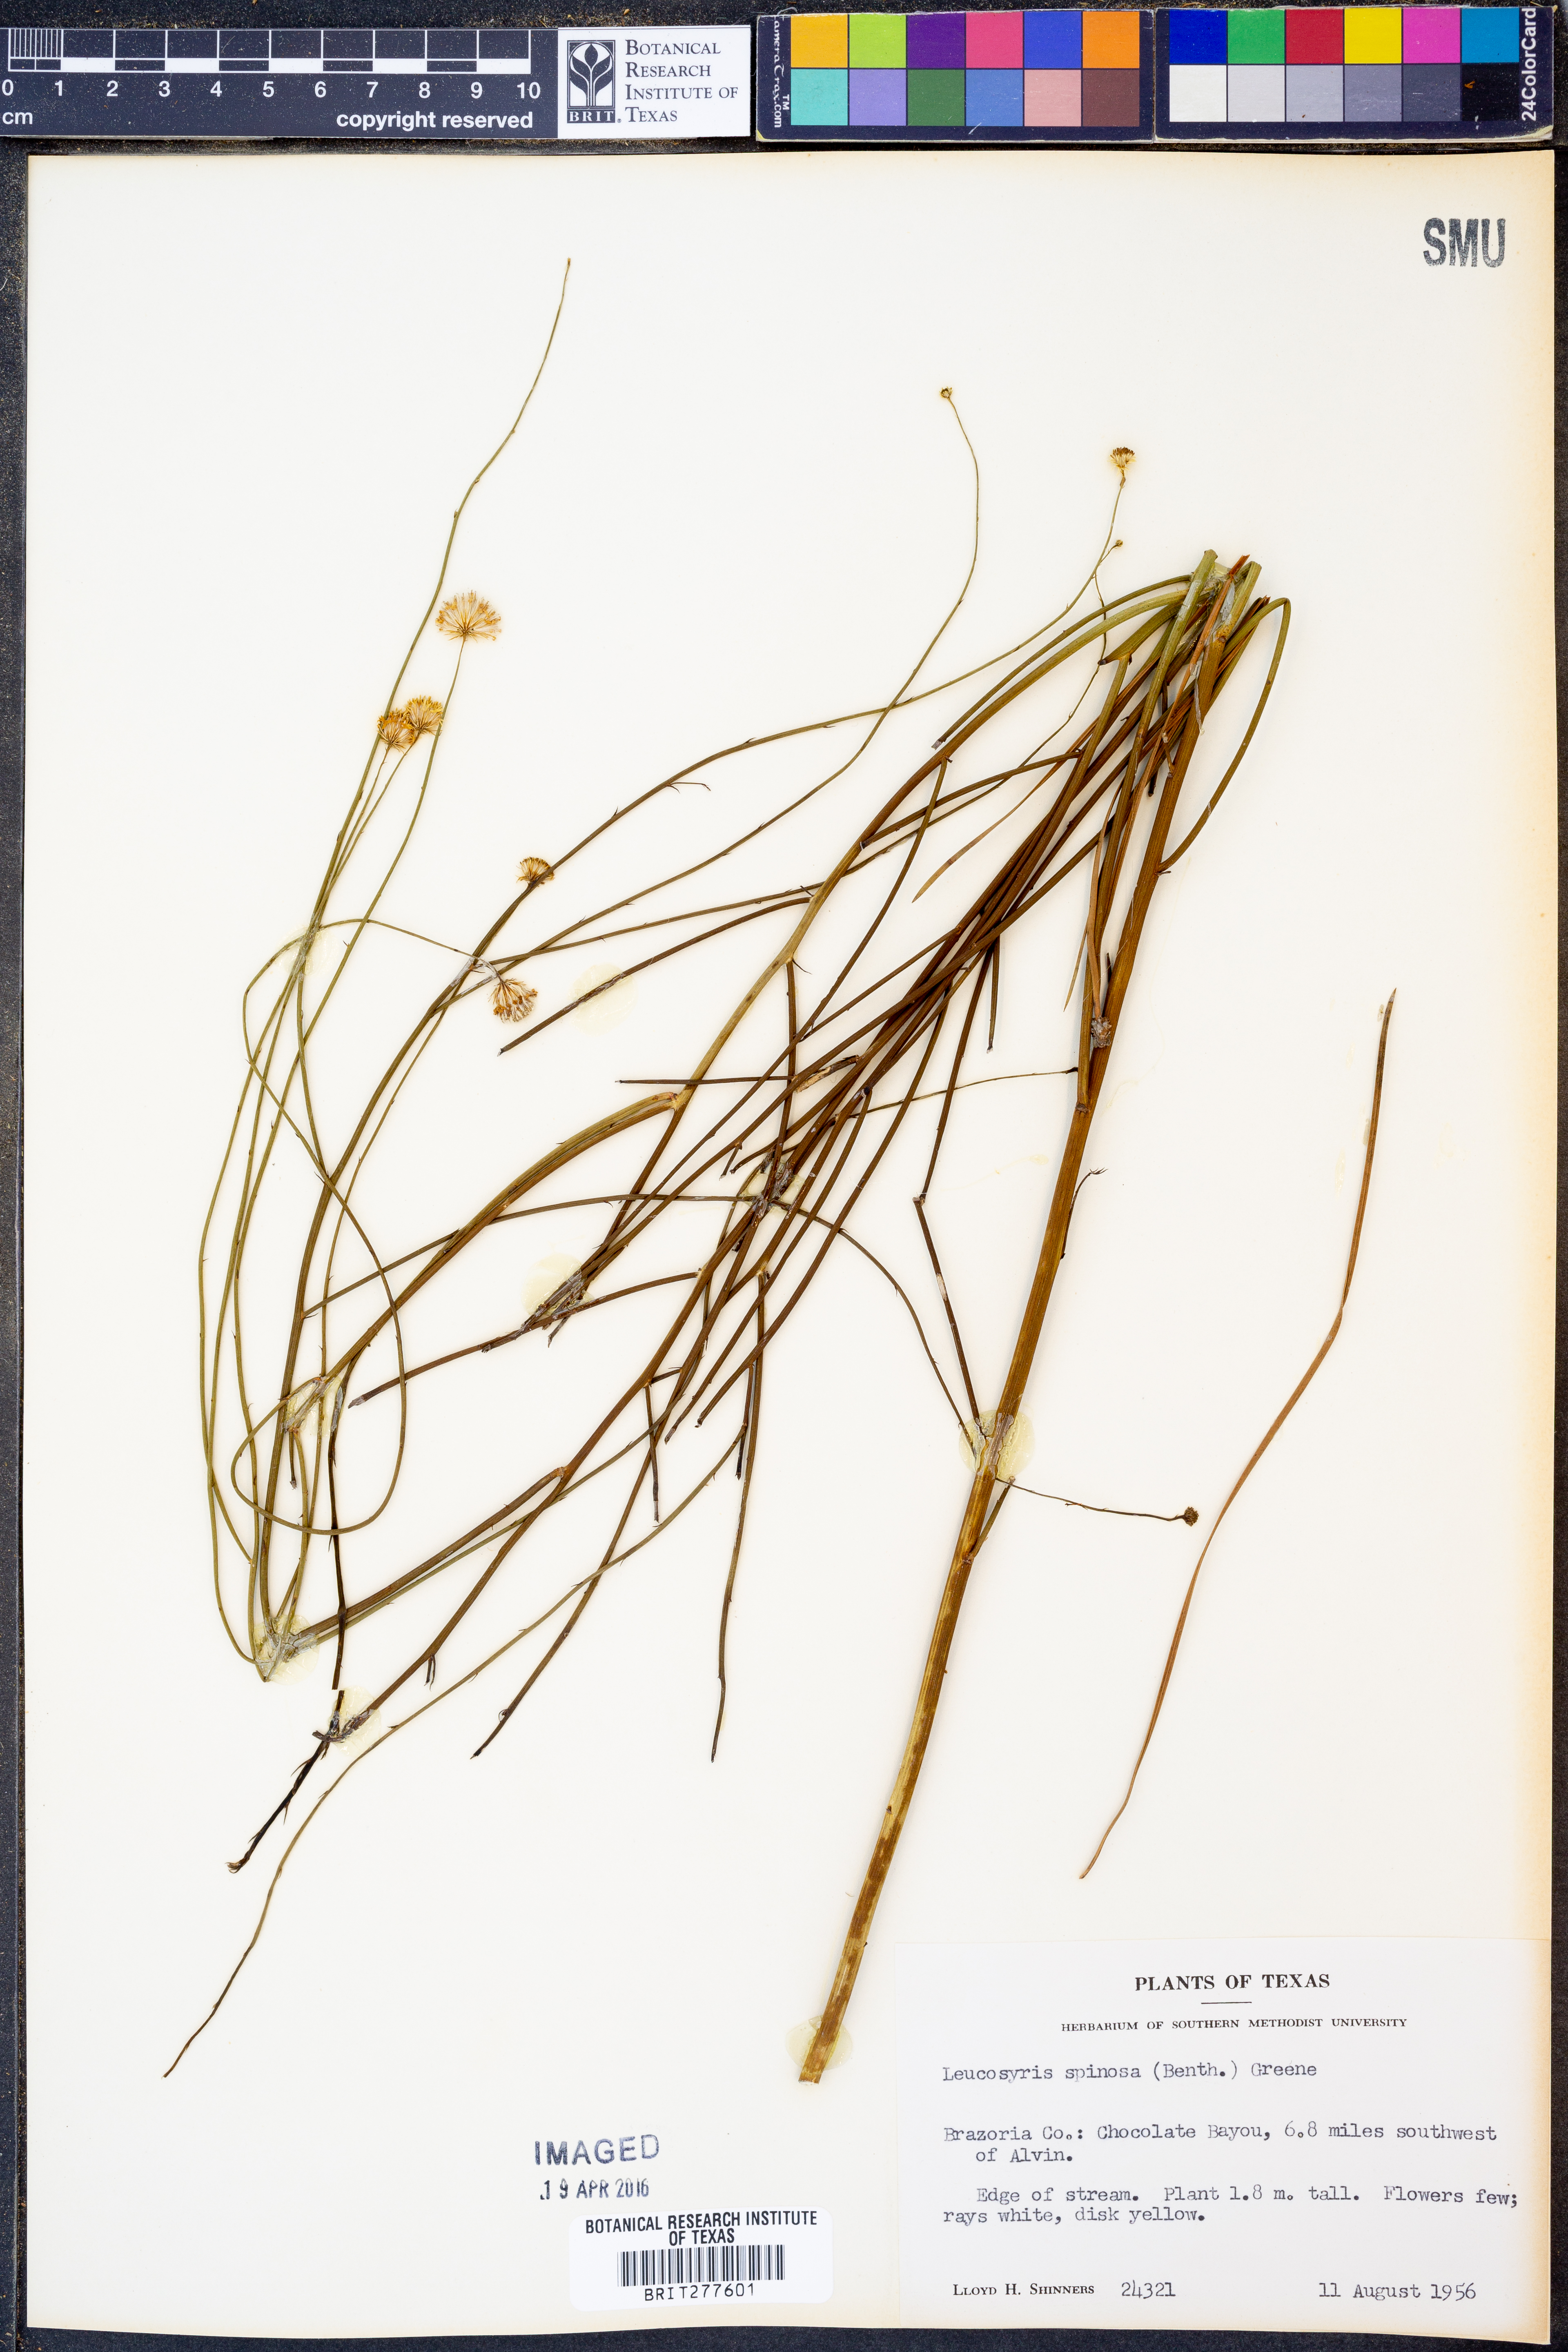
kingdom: Plantae
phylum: Tracheophyta
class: Magnoliopsida
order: Asterales
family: Asteraceae
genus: Chloracantha
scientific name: Chloracantha spinosa
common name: Mexican devilweed
